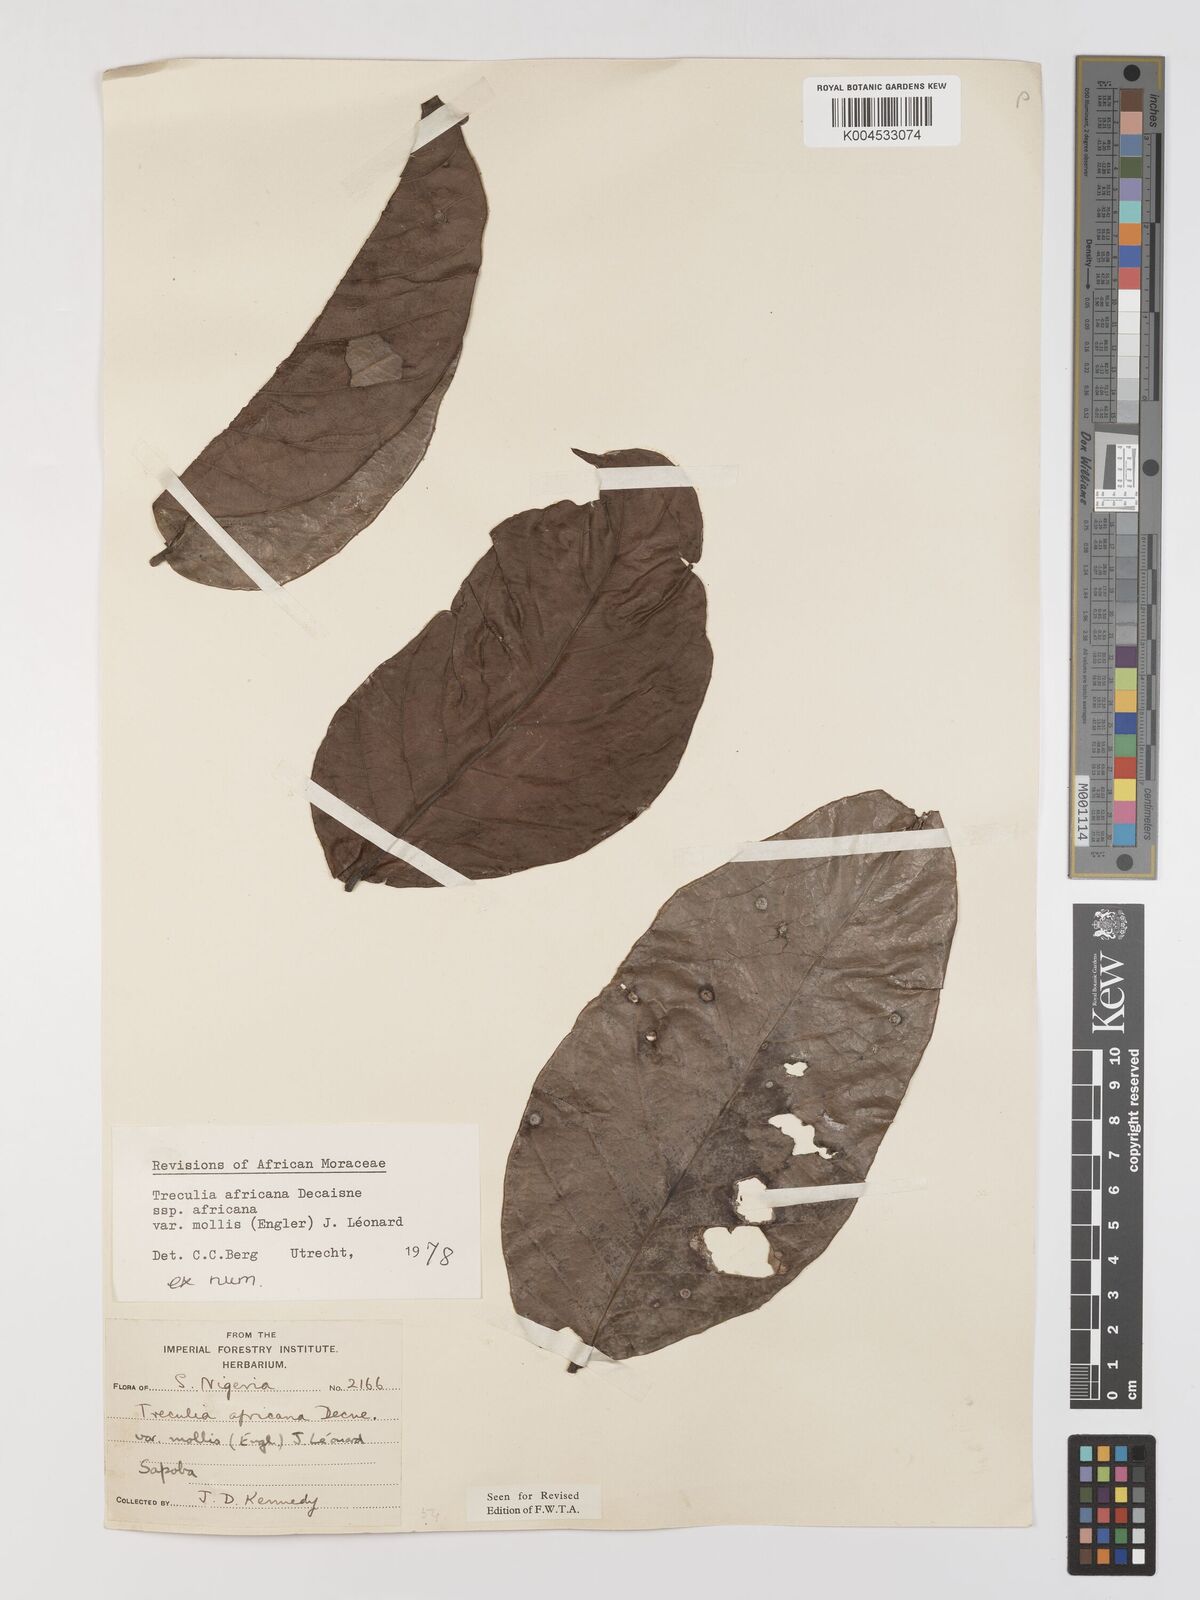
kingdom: Plantae
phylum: Tracheophyta
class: Magnoliopsida
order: Rosales
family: Moraceae
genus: Treculia
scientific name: Treculia africana
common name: African breadfruit
